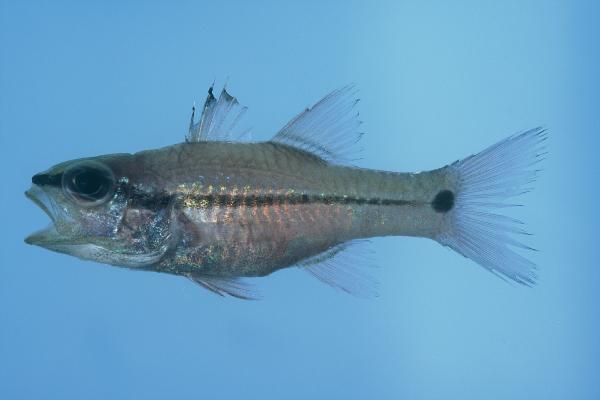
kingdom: Animalia
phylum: Chordata
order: Perciformes
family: Apogonidae
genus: Pristiapogon
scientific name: Pristiapogon fraenatus
